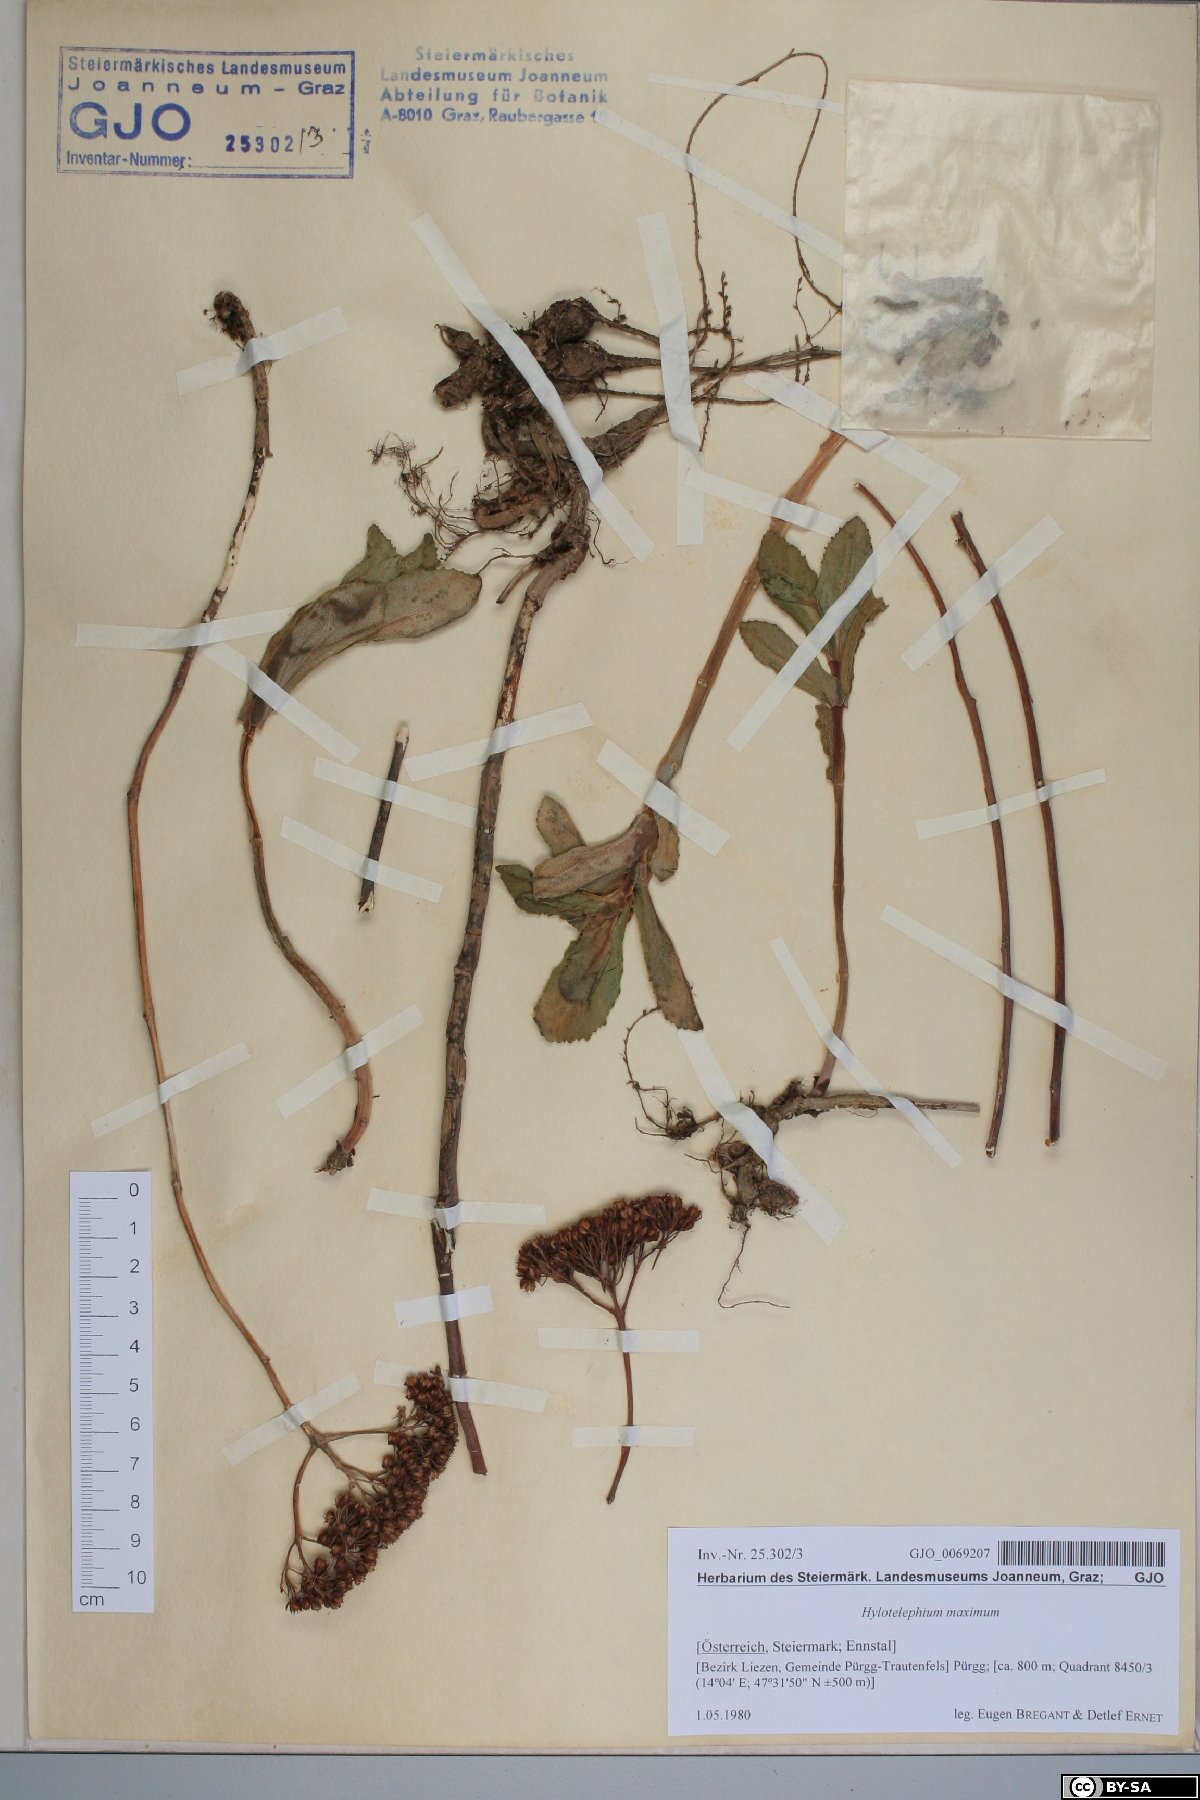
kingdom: Plantae
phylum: Tracheophyta
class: Magnoliopsida
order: Saxifragales
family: Crassulaceae
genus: Hylotelephium
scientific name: Hylotelephium maximum
